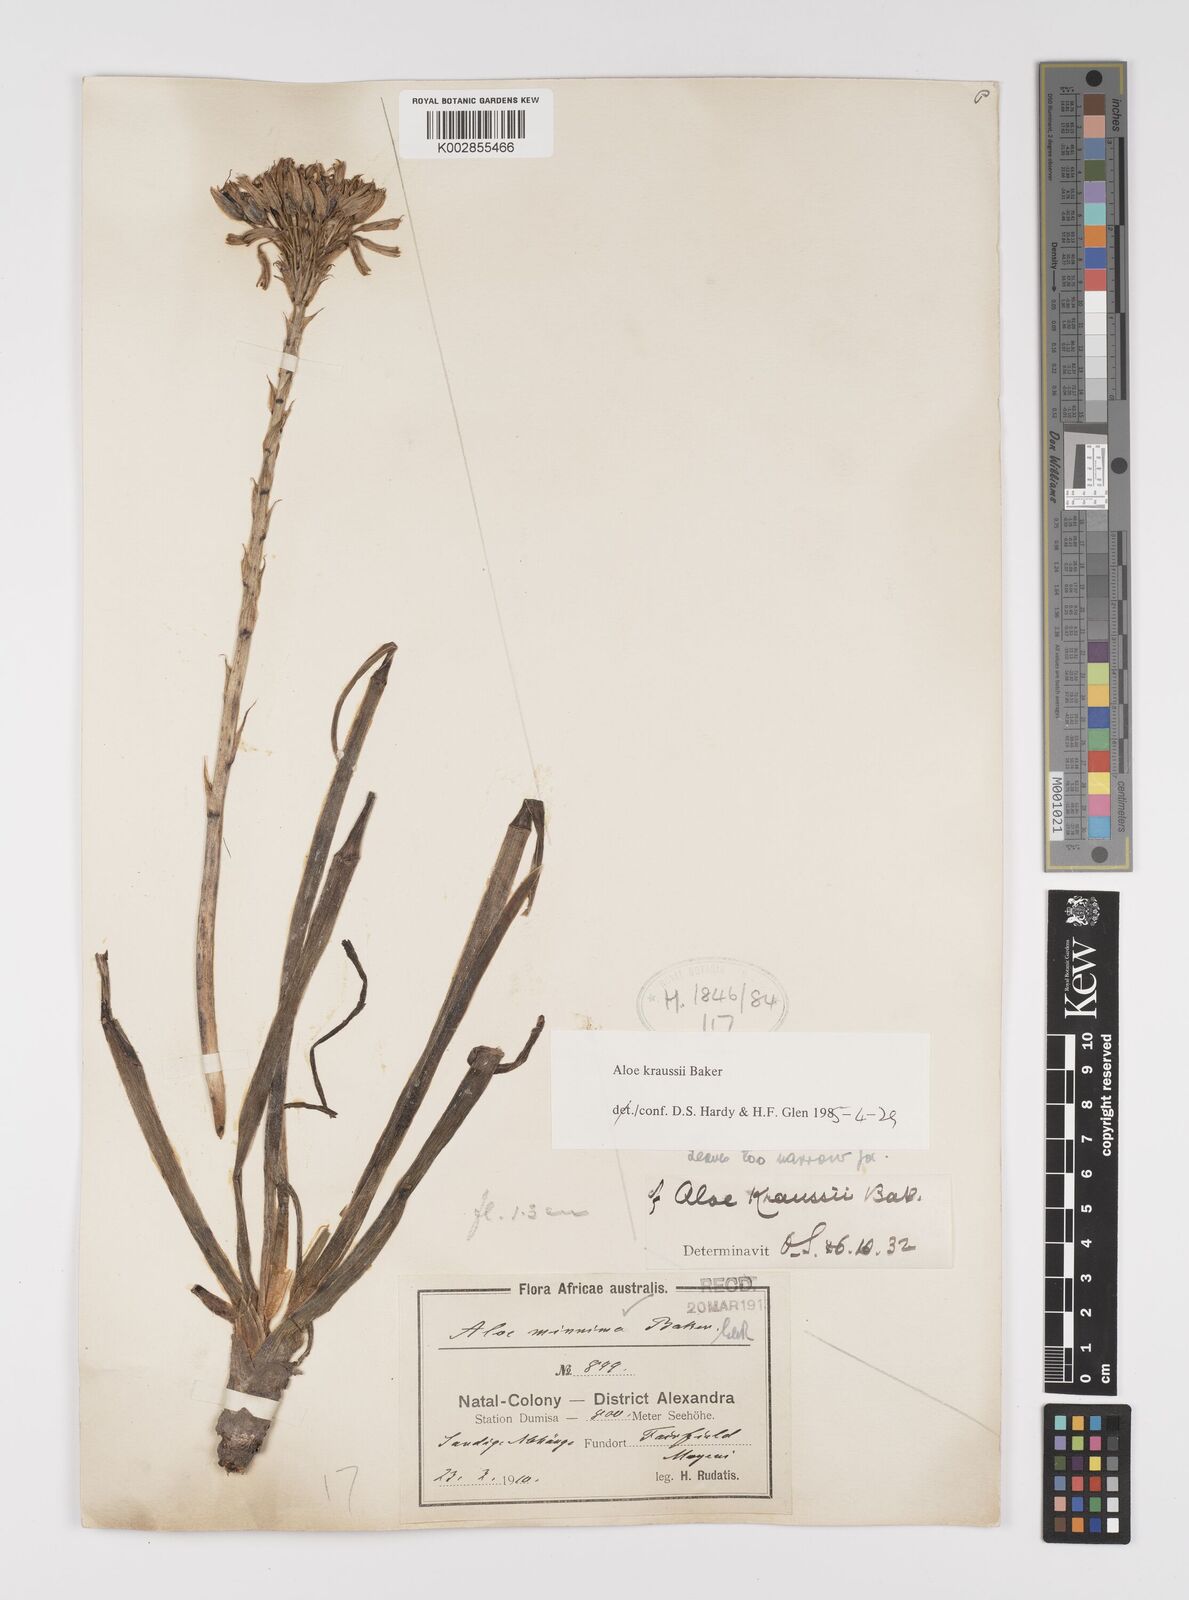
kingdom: Plantae
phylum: Tracheophyta
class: Liliopsida
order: Asparagales
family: Asphodelaceae
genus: Aloe
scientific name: Aloe kraussii
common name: Broad-leaved yellow grass aloe
